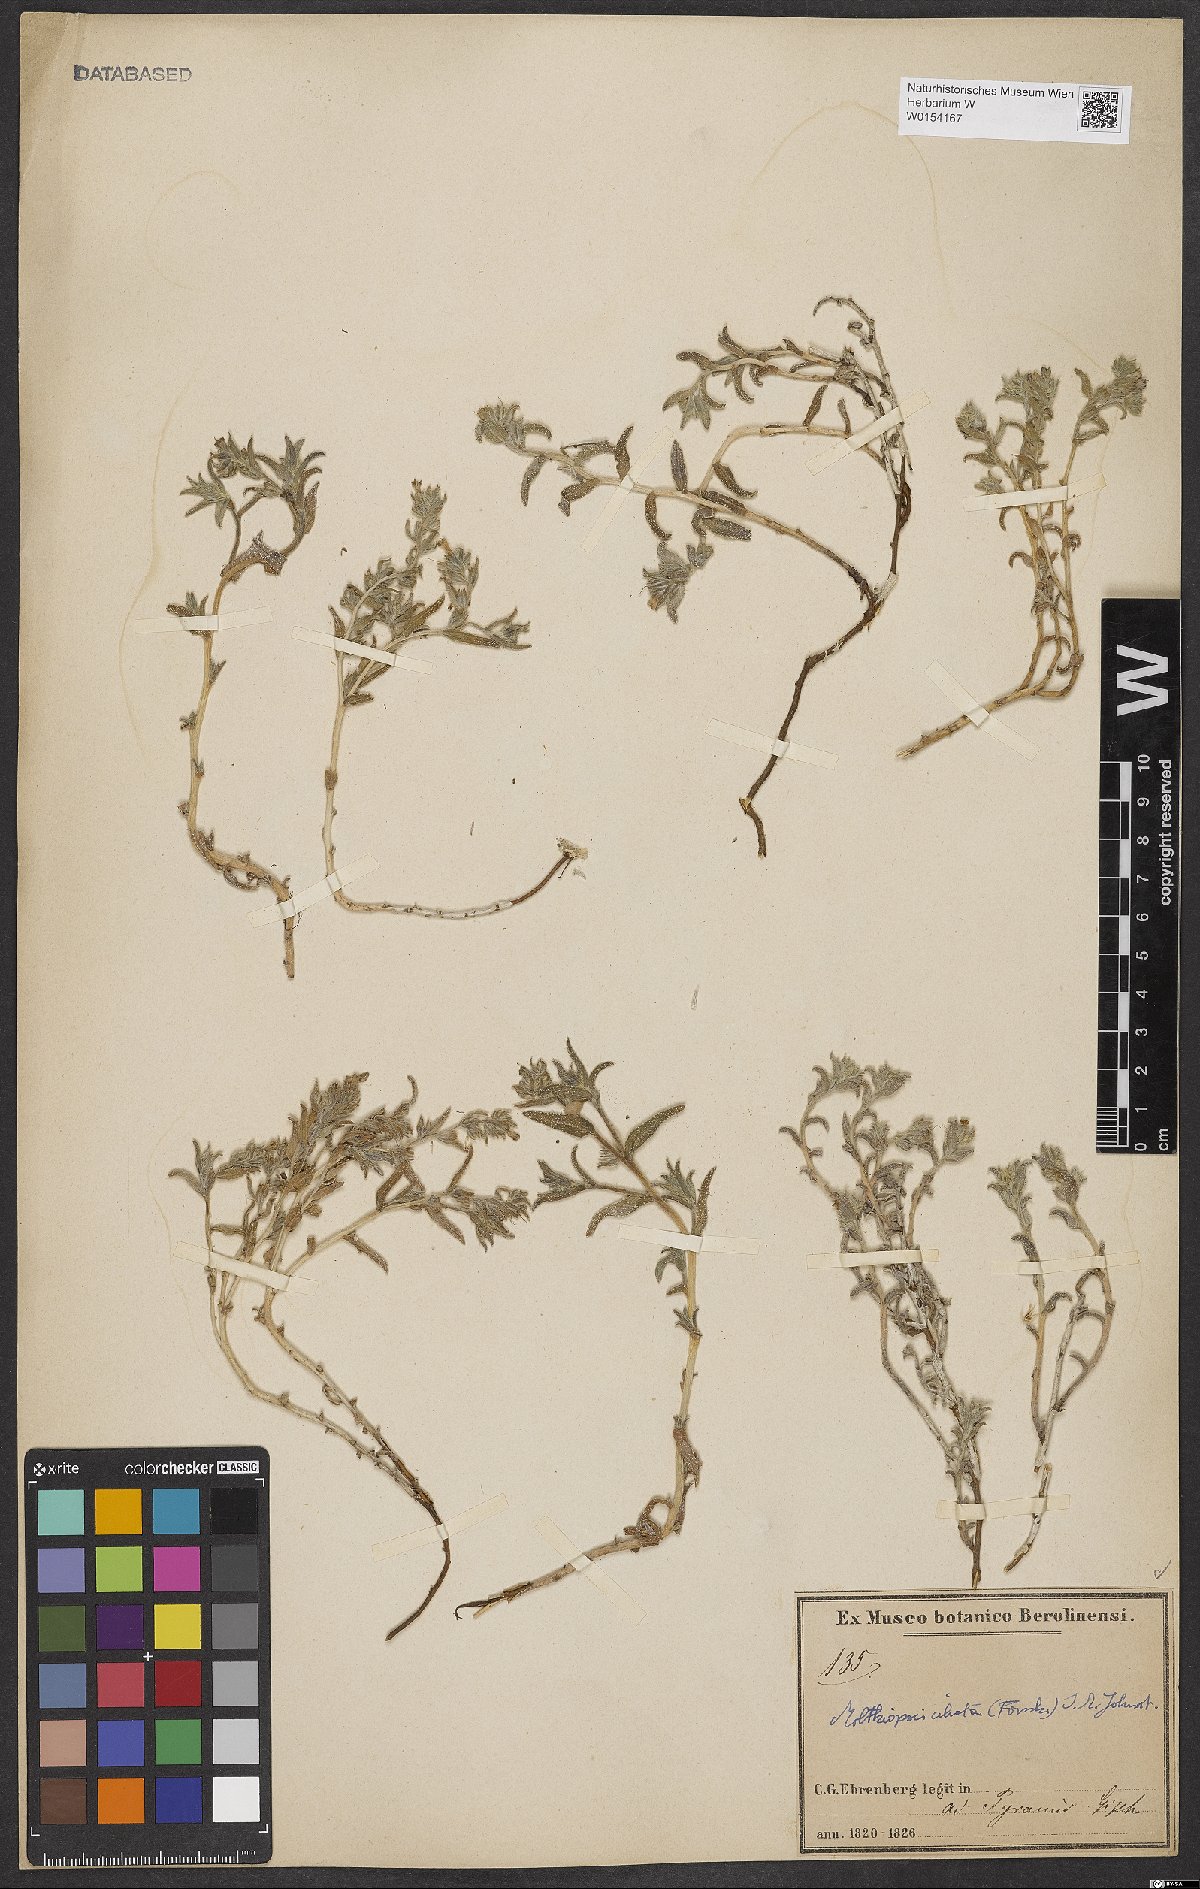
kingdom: Plantae
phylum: Tracheophyta
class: Magnoliopsida
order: Boraginales
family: Boraginaceae
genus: Moltkiopsis
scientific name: Moltkiopsis ciliata
